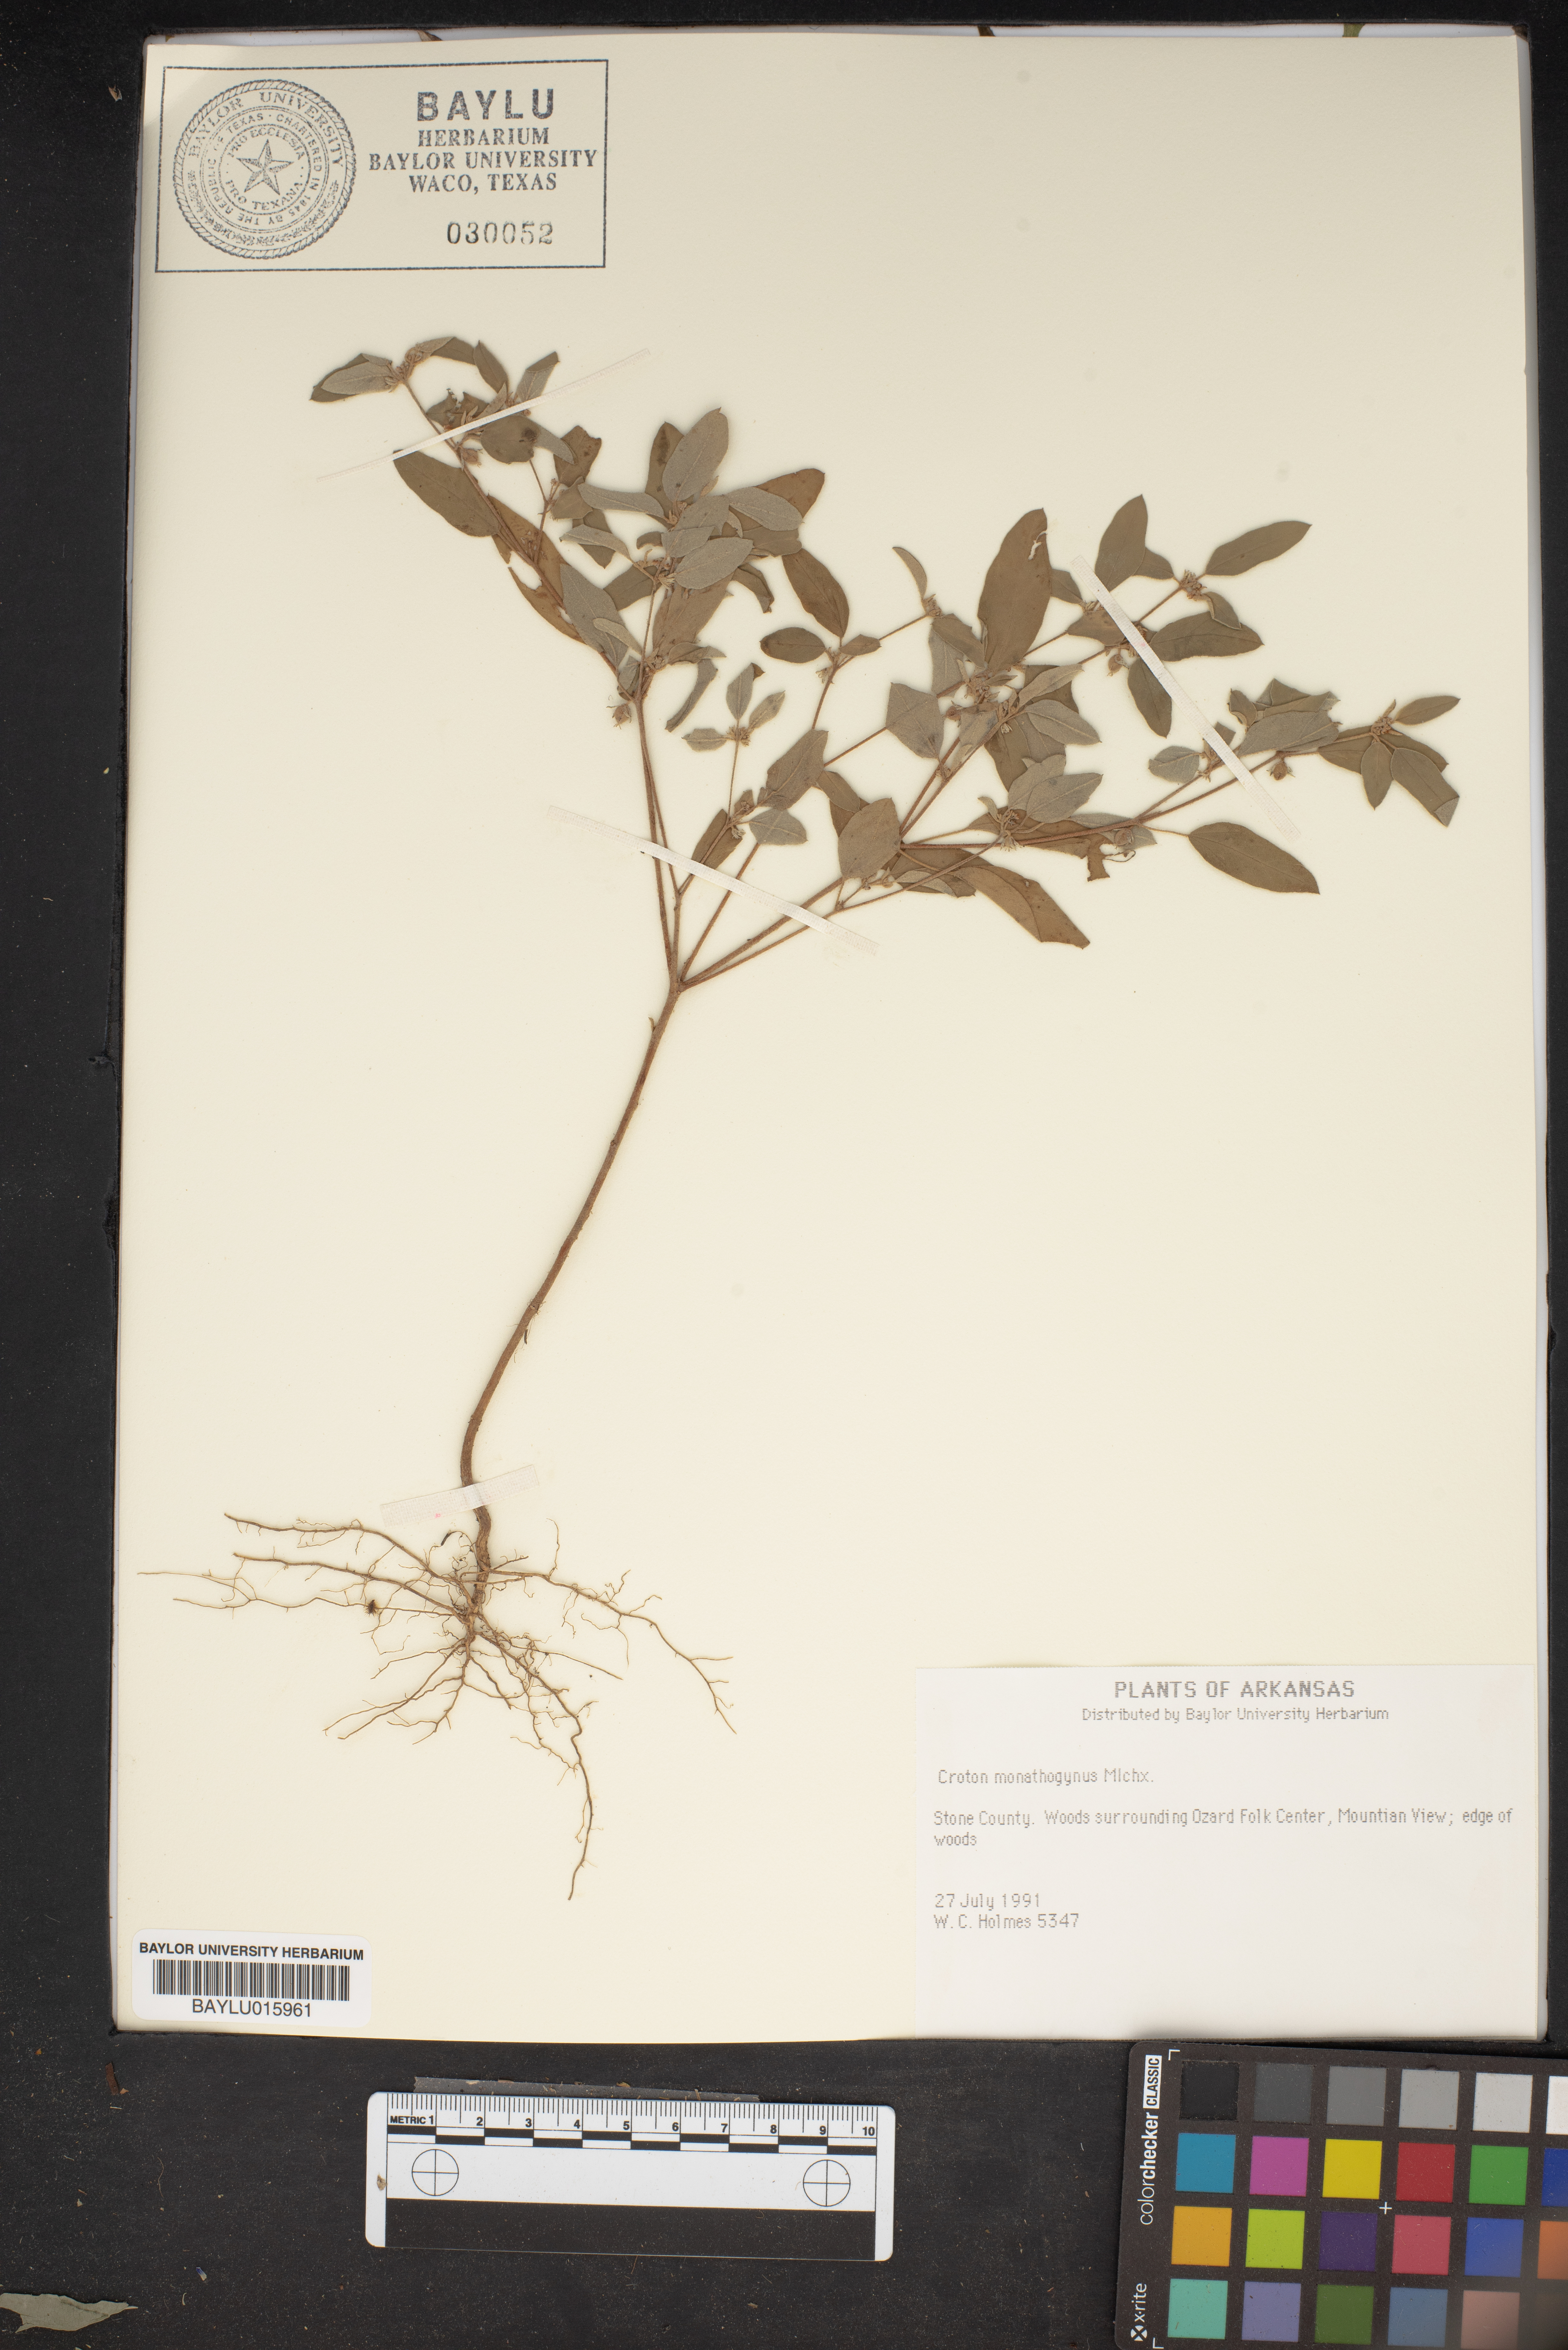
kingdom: Plantae
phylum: Tracheophyta
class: Magnoliopsida
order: Malpighiales
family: Euphorbiaceae
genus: Croton
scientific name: Croton monanthogynus
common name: One-seed croton
